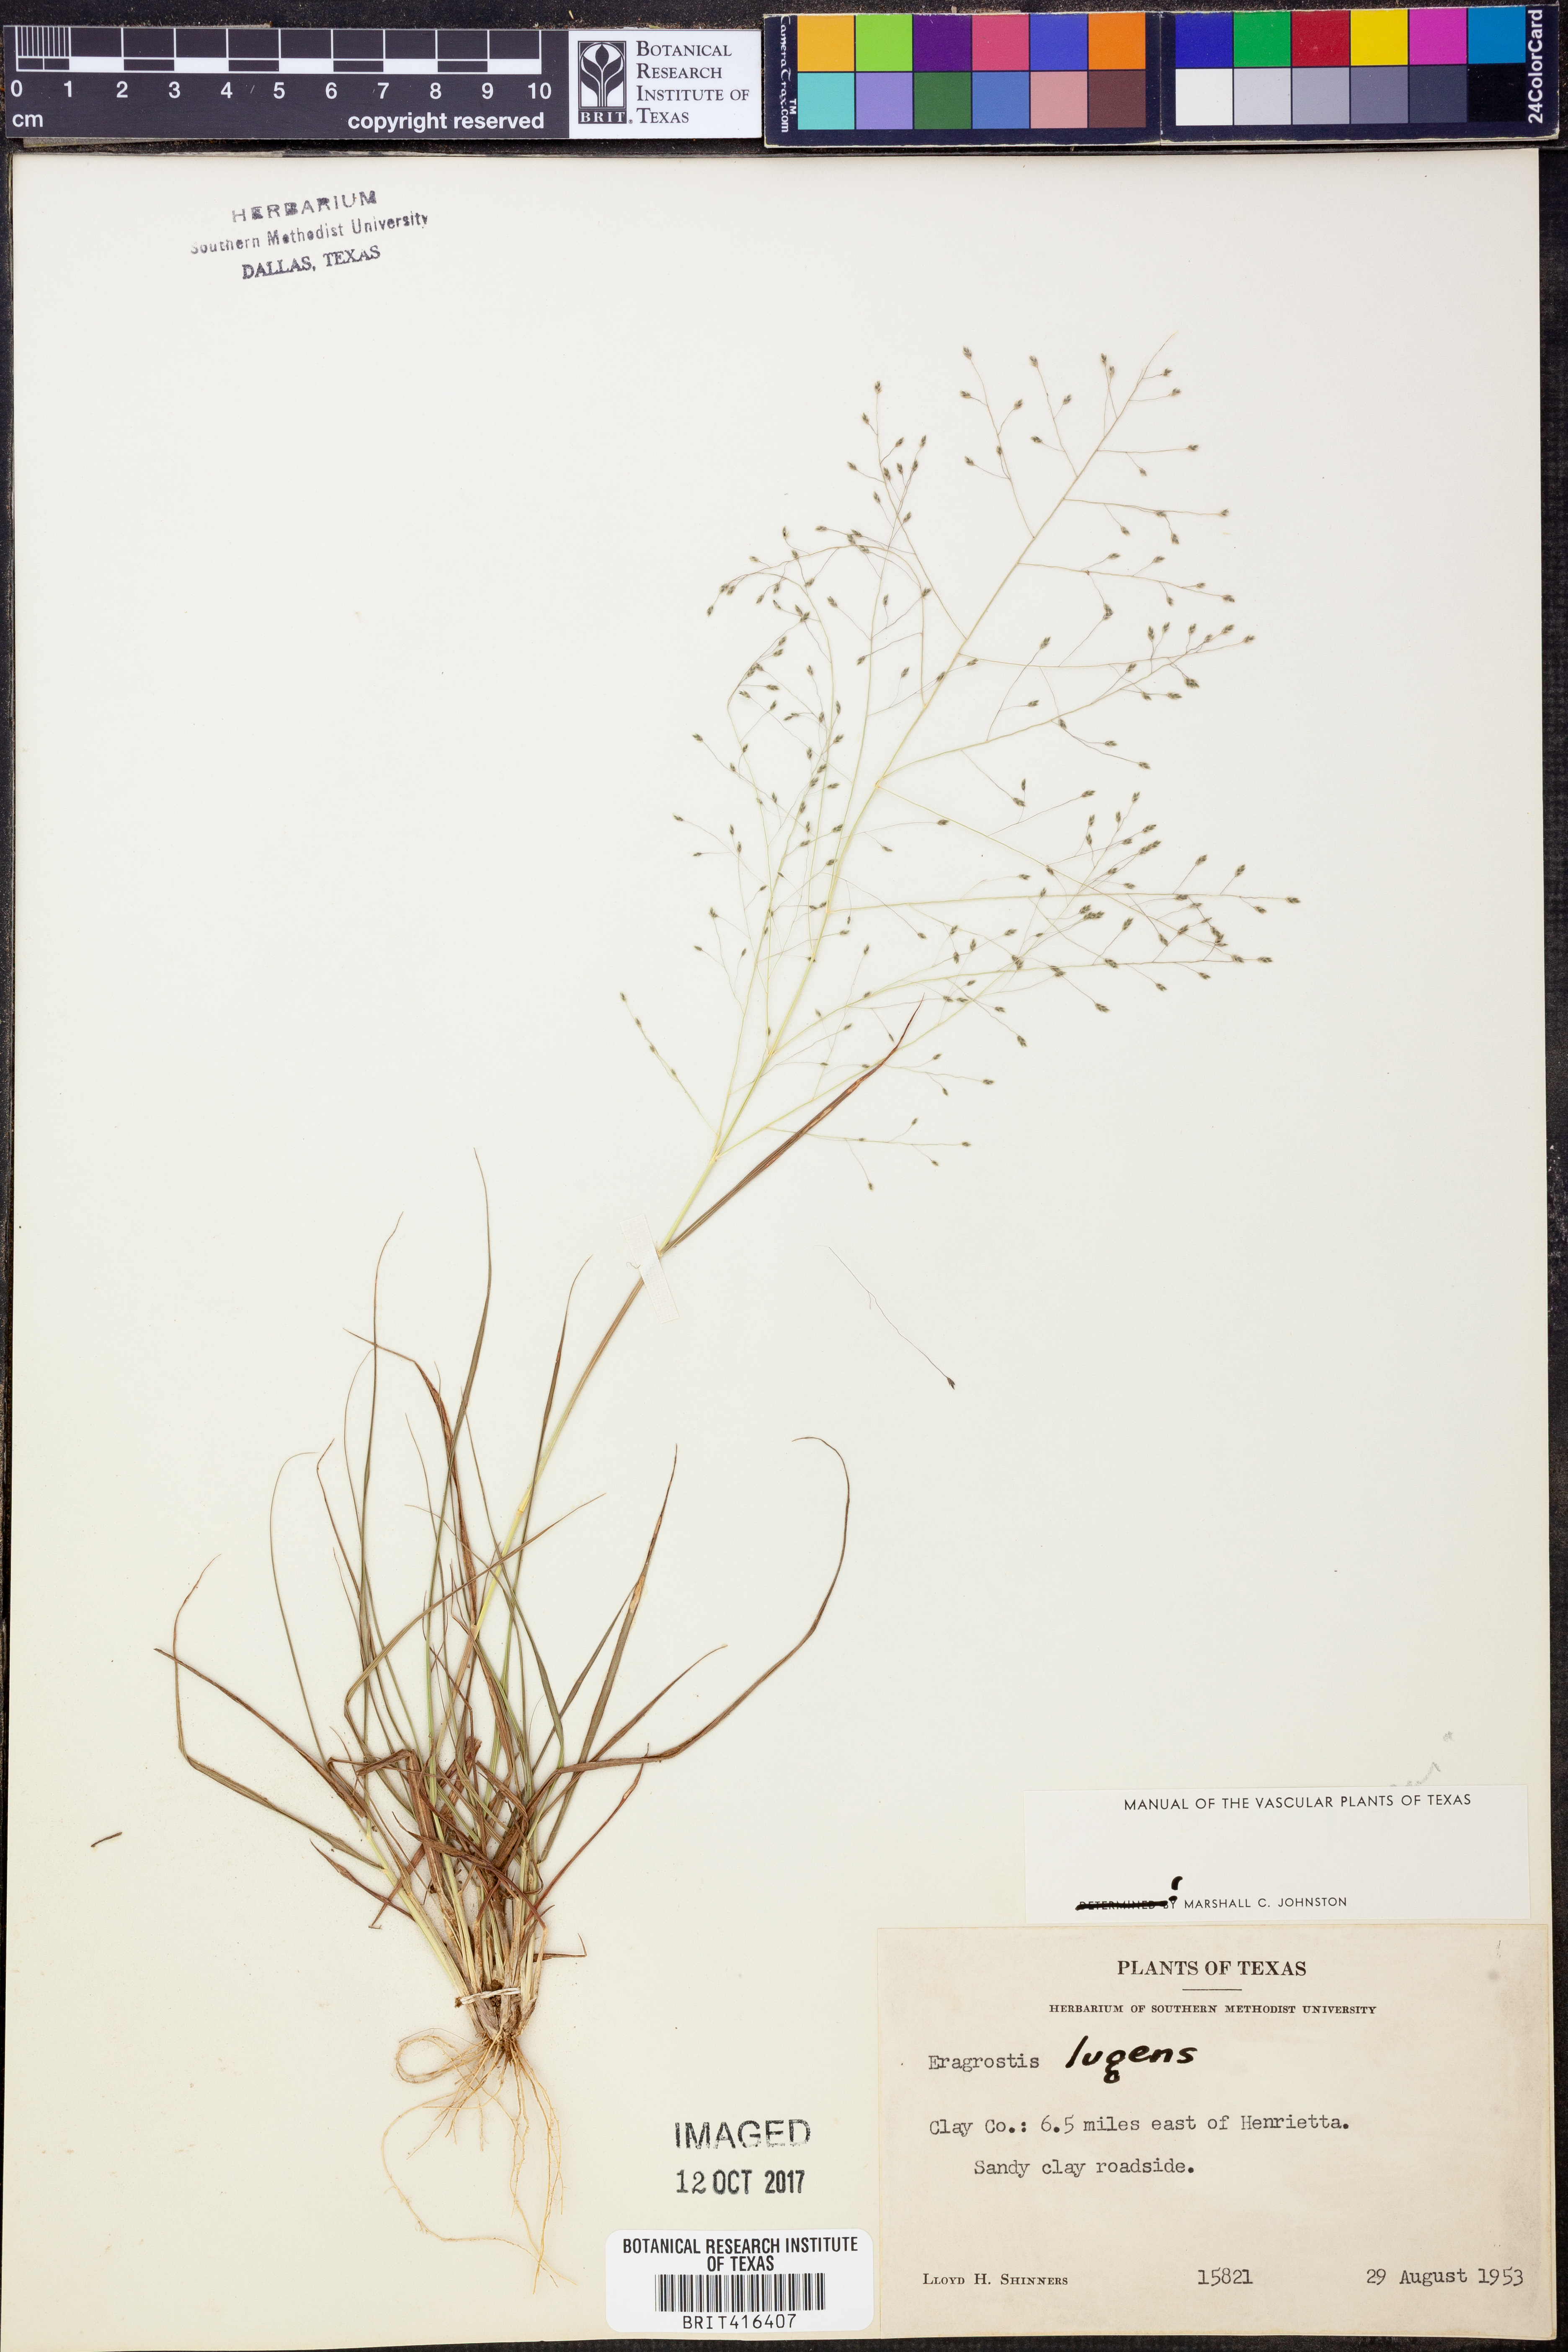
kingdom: Plantae
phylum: Tracheophyta
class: Liliopsida
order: Poales
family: Poaceae
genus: Eragrostis
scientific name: Eragrostis capillaris
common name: Hair-like lovegrass
